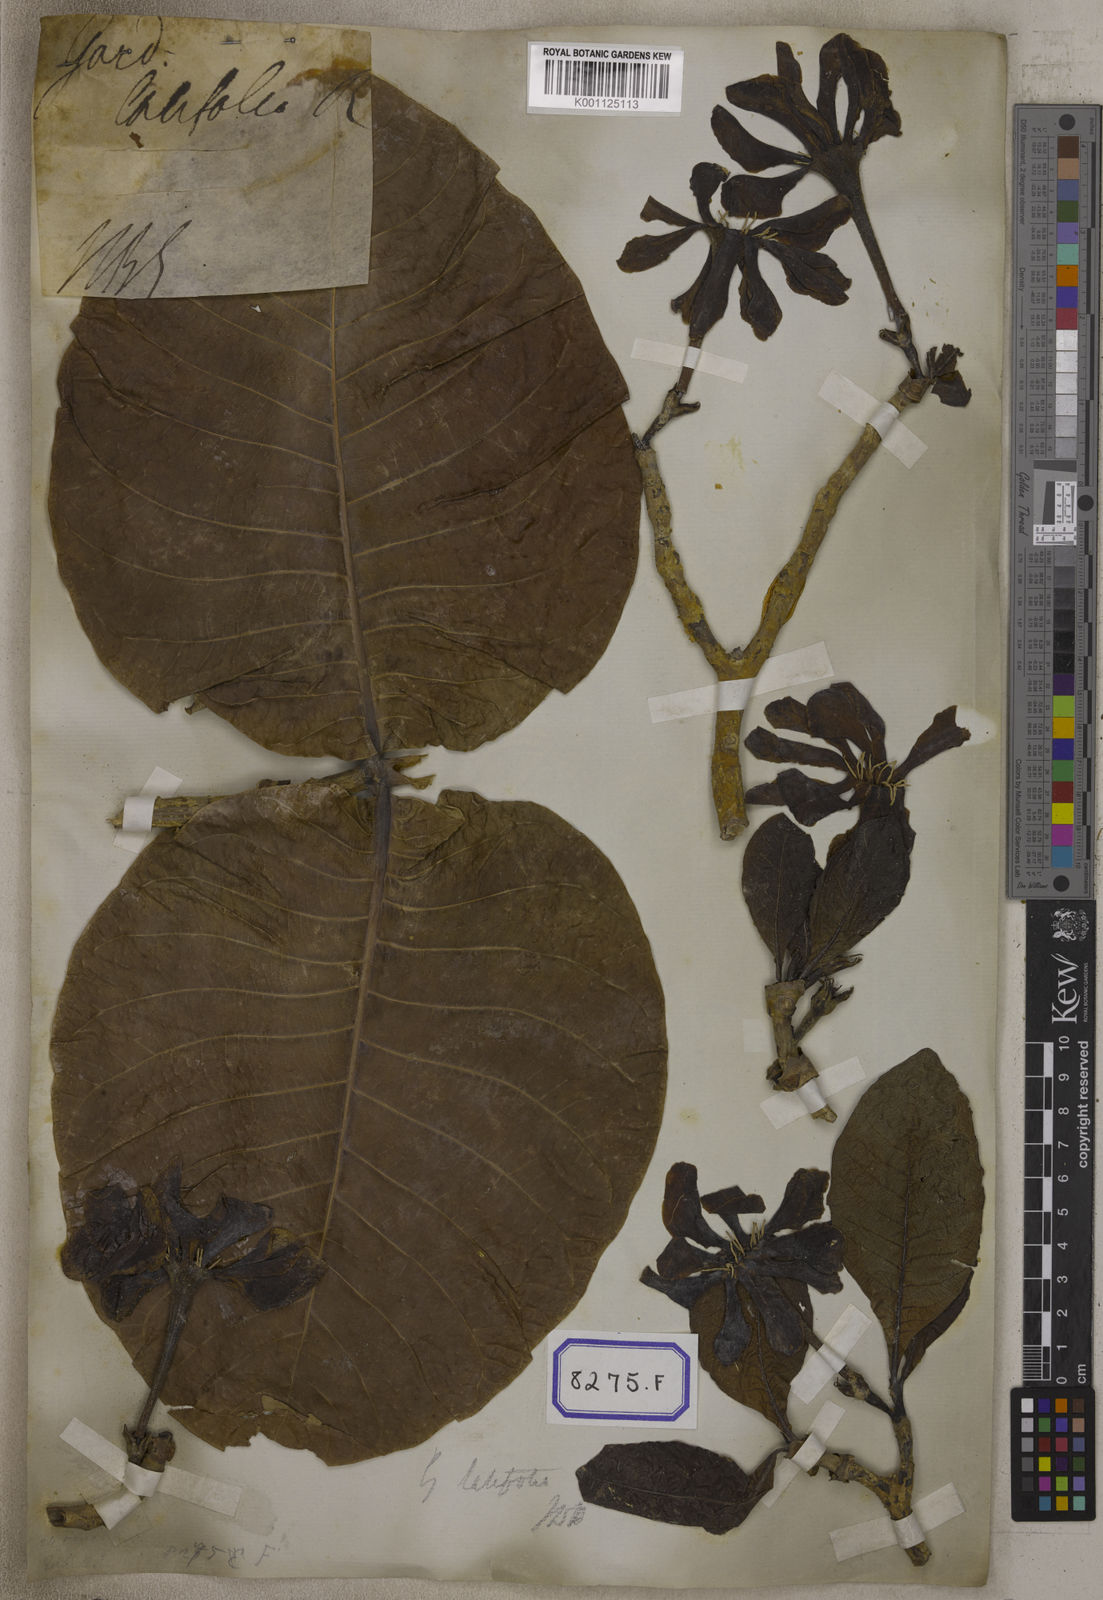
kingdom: Plantae
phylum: Tracheophyta
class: Magnoliopsida
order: Gentianales
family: Rubiaceae
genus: Gardenia
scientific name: Gardenia
